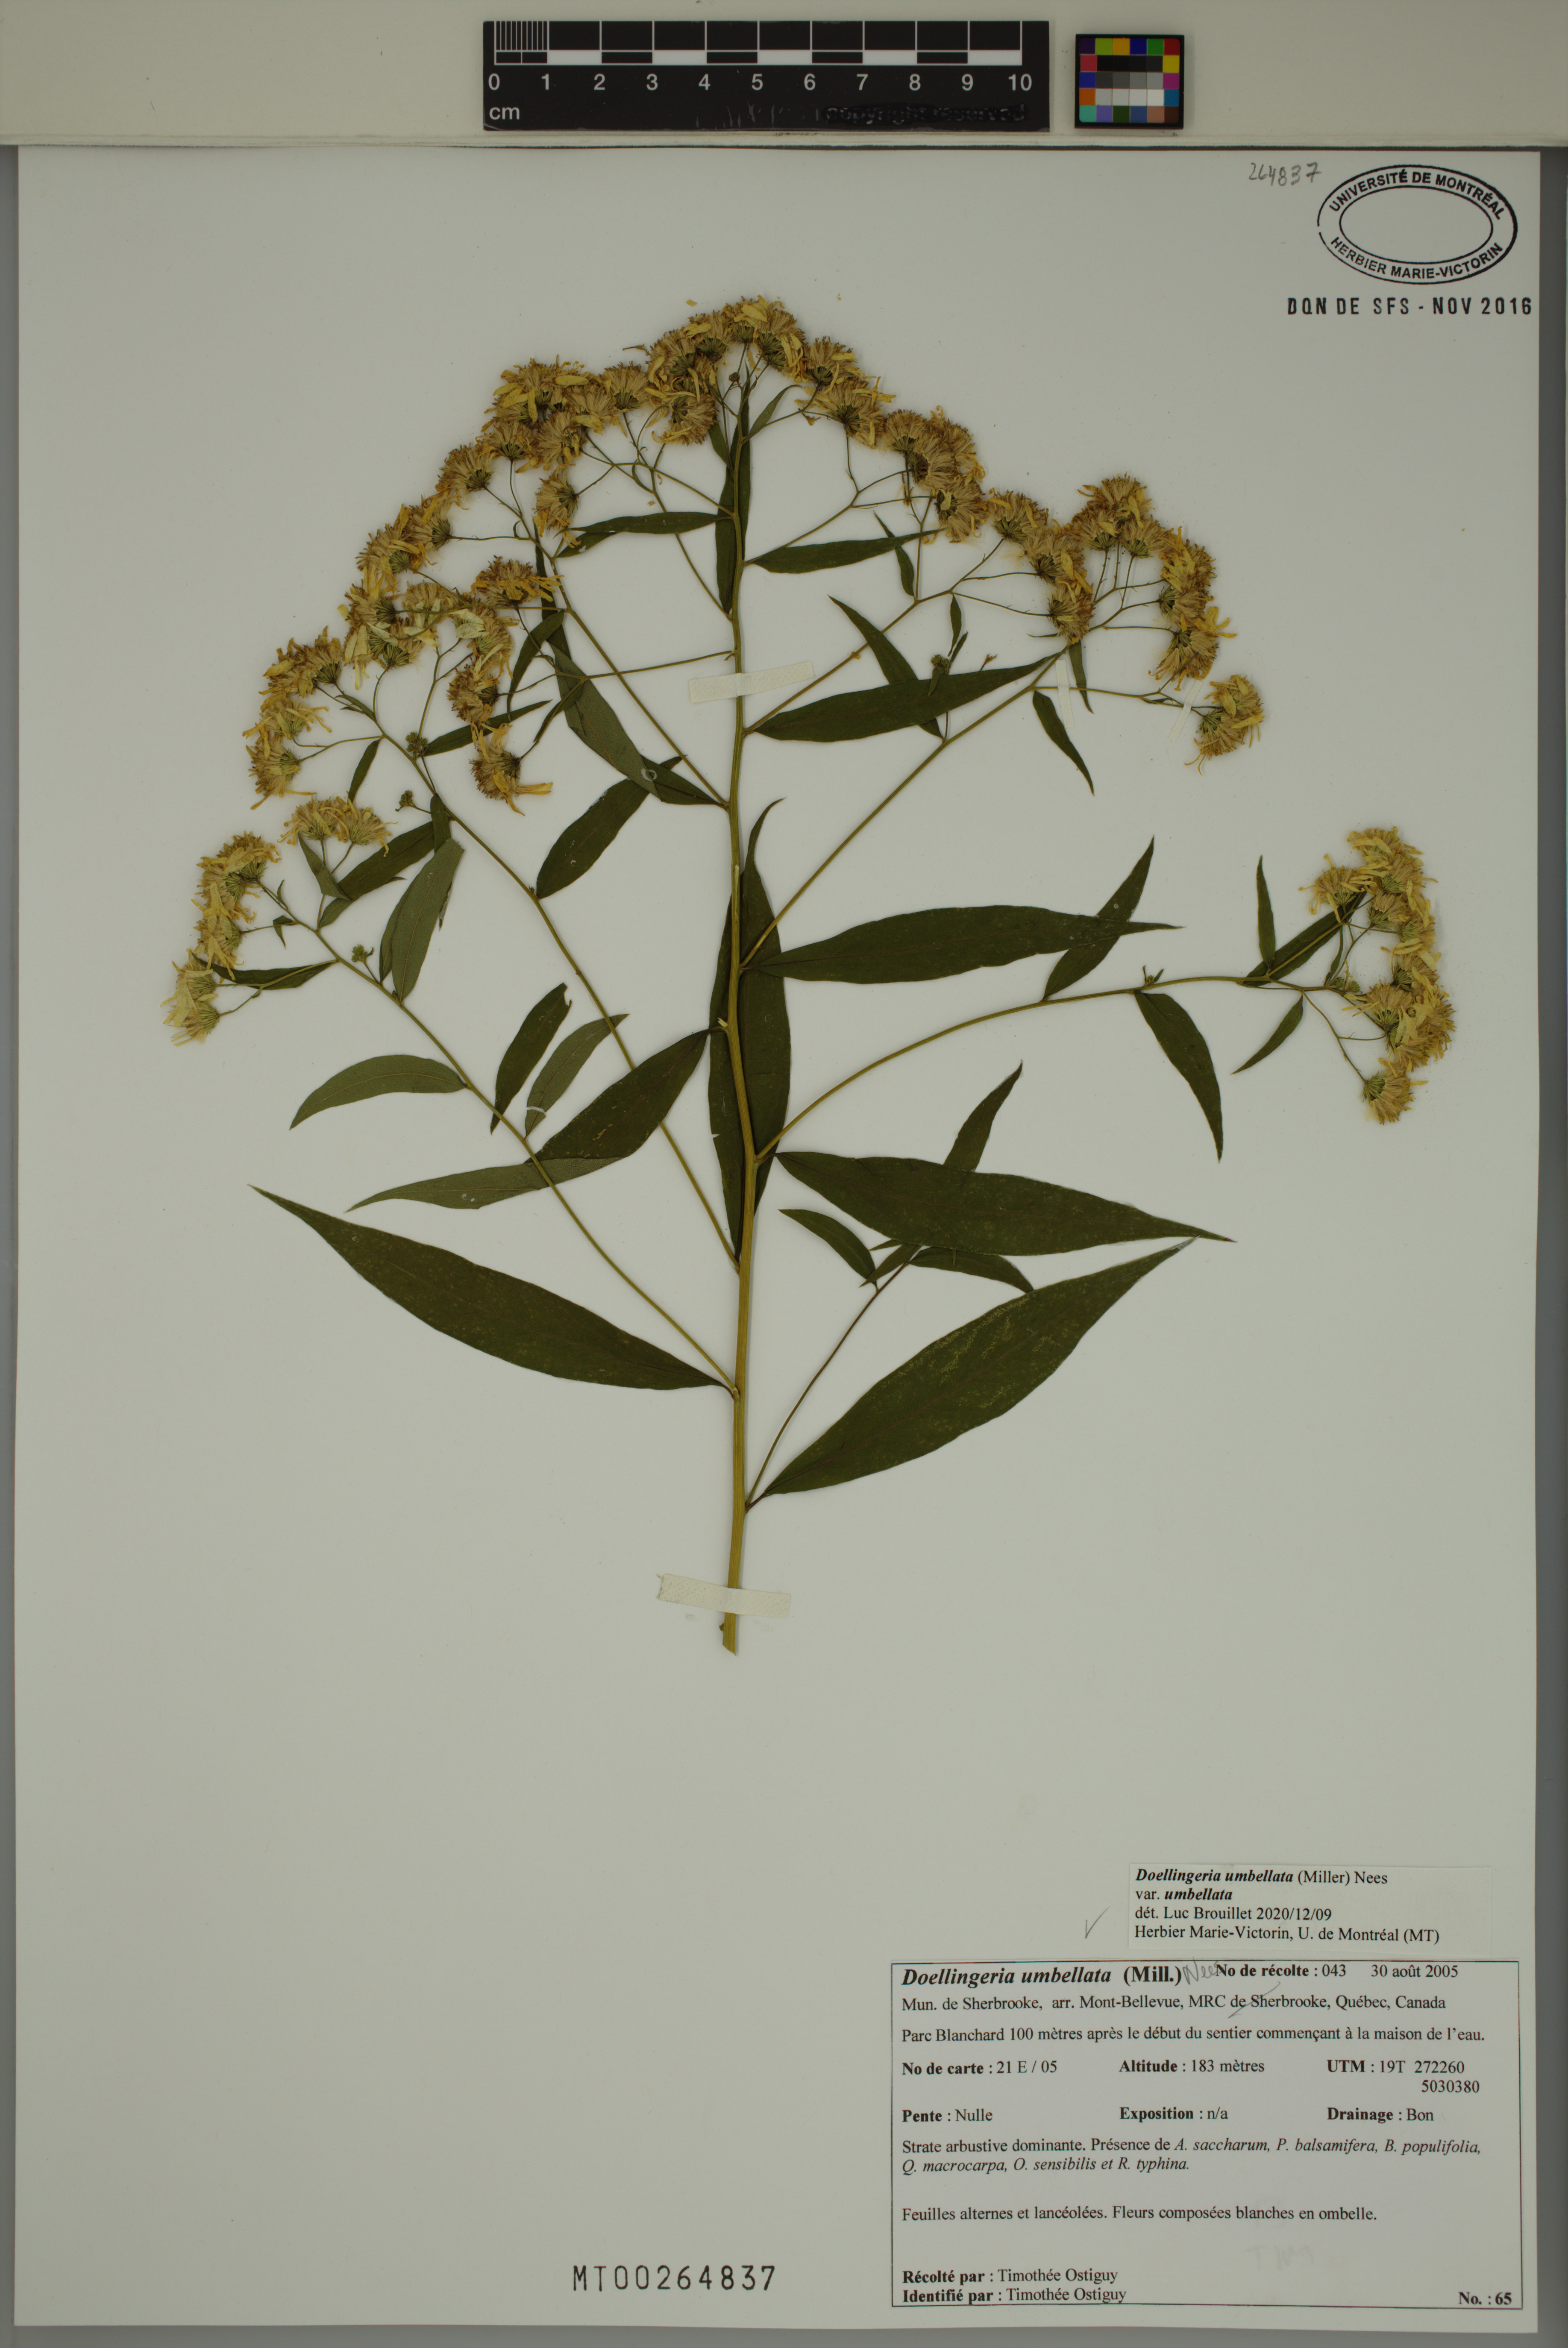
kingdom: Plantae
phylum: Tracheophyta
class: Magnoliopsida
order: Asterales
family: Asteraceae
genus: Doellingeria
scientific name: Doellingeria umbellata
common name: Flat-top white aster
